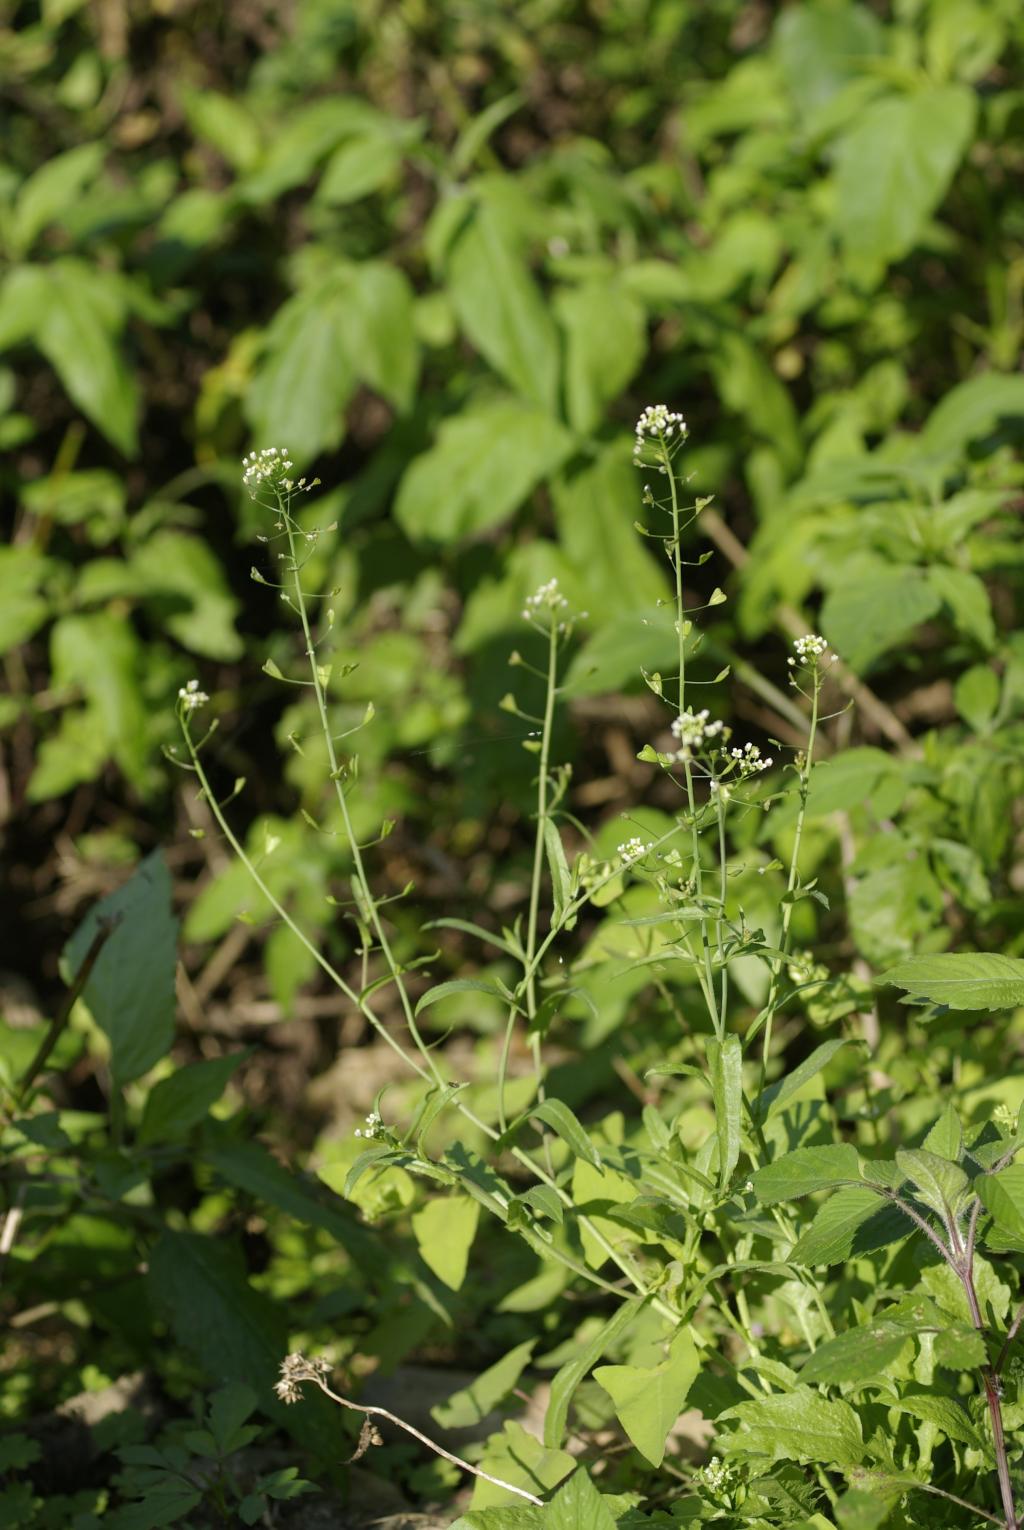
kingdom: Plantae
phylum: Tracheophyta
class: Magnoliopsida
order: Brassicales
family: Brassicaceae
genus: Capsella
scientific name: Capsella bursa-pastoris
